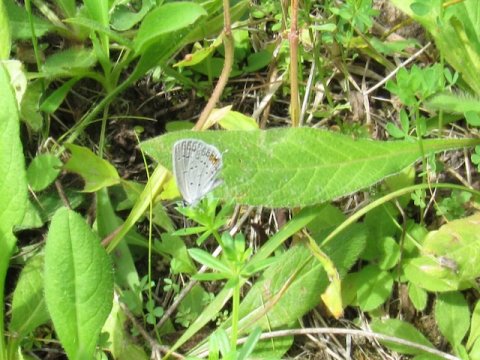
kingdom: Animalia
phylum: Arthropoda
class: Insecta
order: Lepidoptera
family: Lycaenidae
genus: Elkalyce
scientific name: Elkalyce comyntas
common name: Eastern Tailed-Blue
